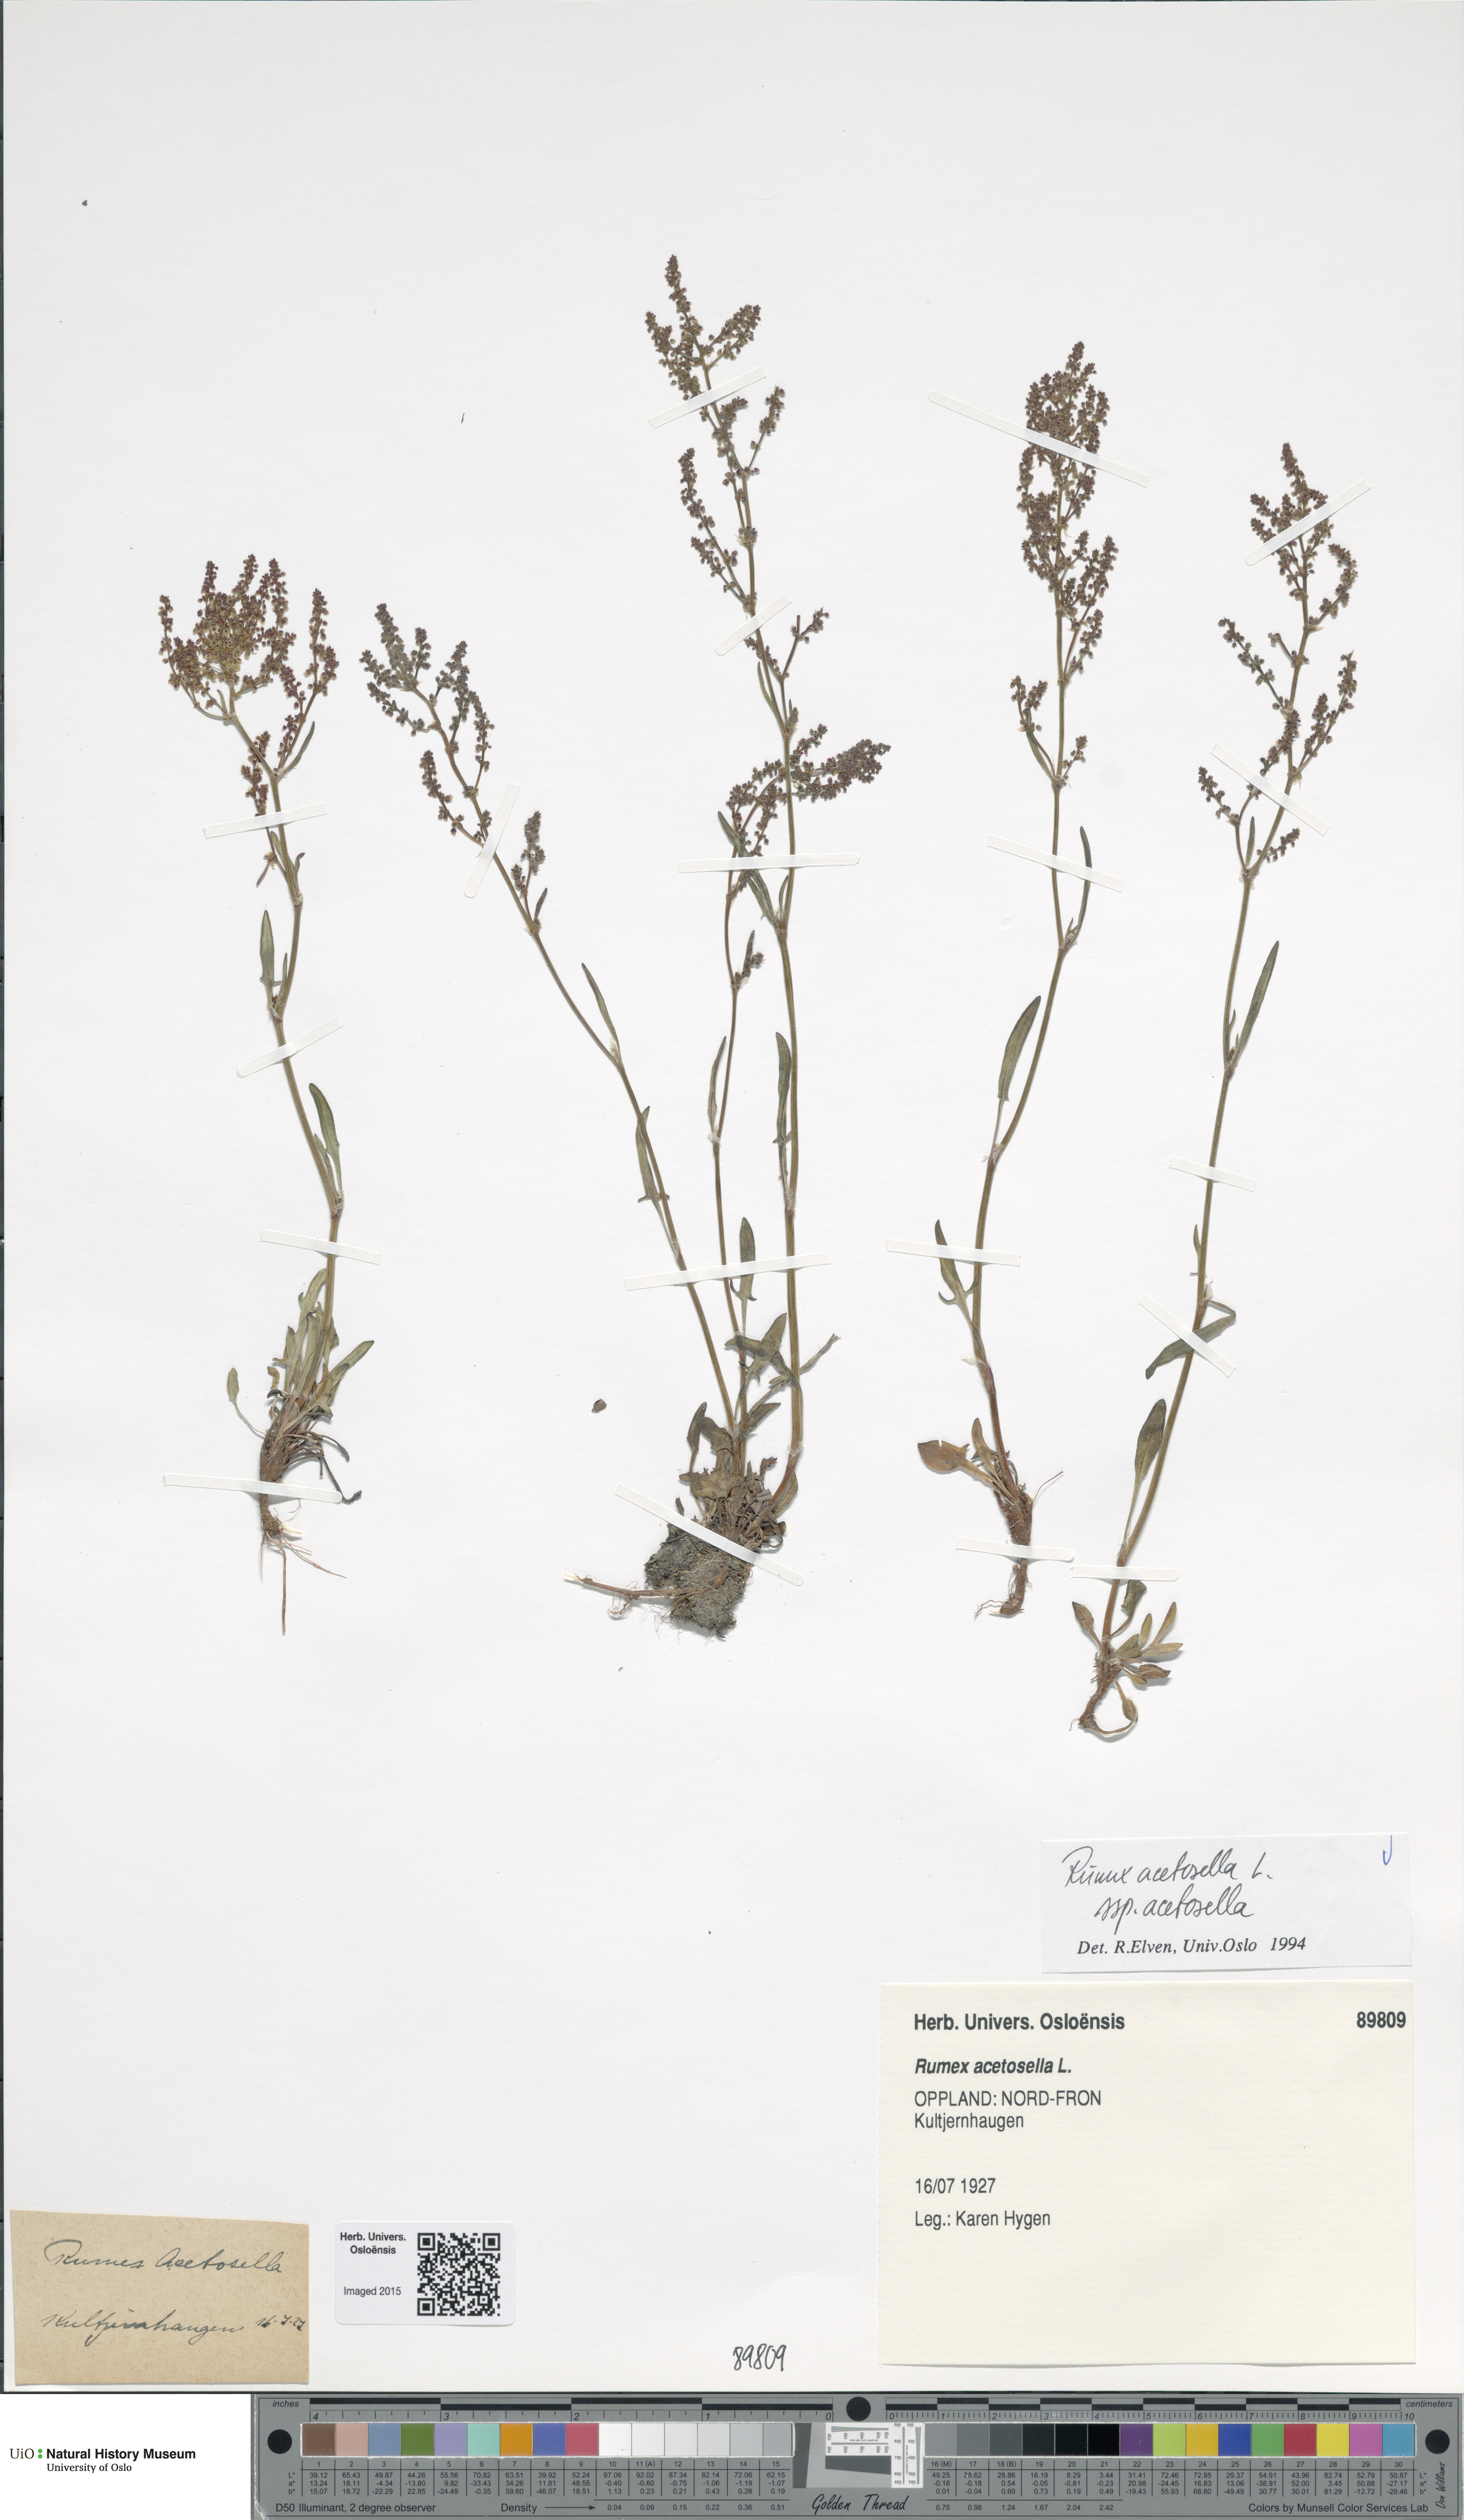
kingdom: Plantae
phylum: Tracheophyta
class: Magnoliopsida
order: Caryophyllales
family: Polygonaceae
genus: Rumex
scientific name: Rumex acetosella
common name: Common sheep sorrel
